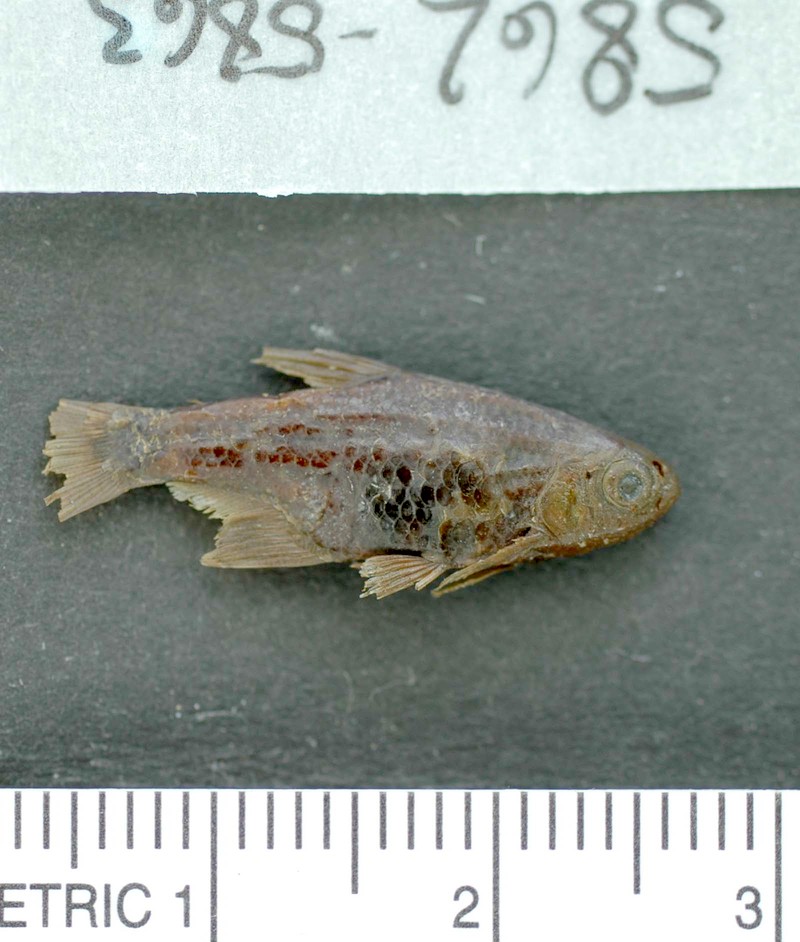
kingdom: Animalia
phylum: Chordata
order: Characiformes
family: Characidae
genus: Serrapinnus
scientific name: Serrapinnus kriegi
